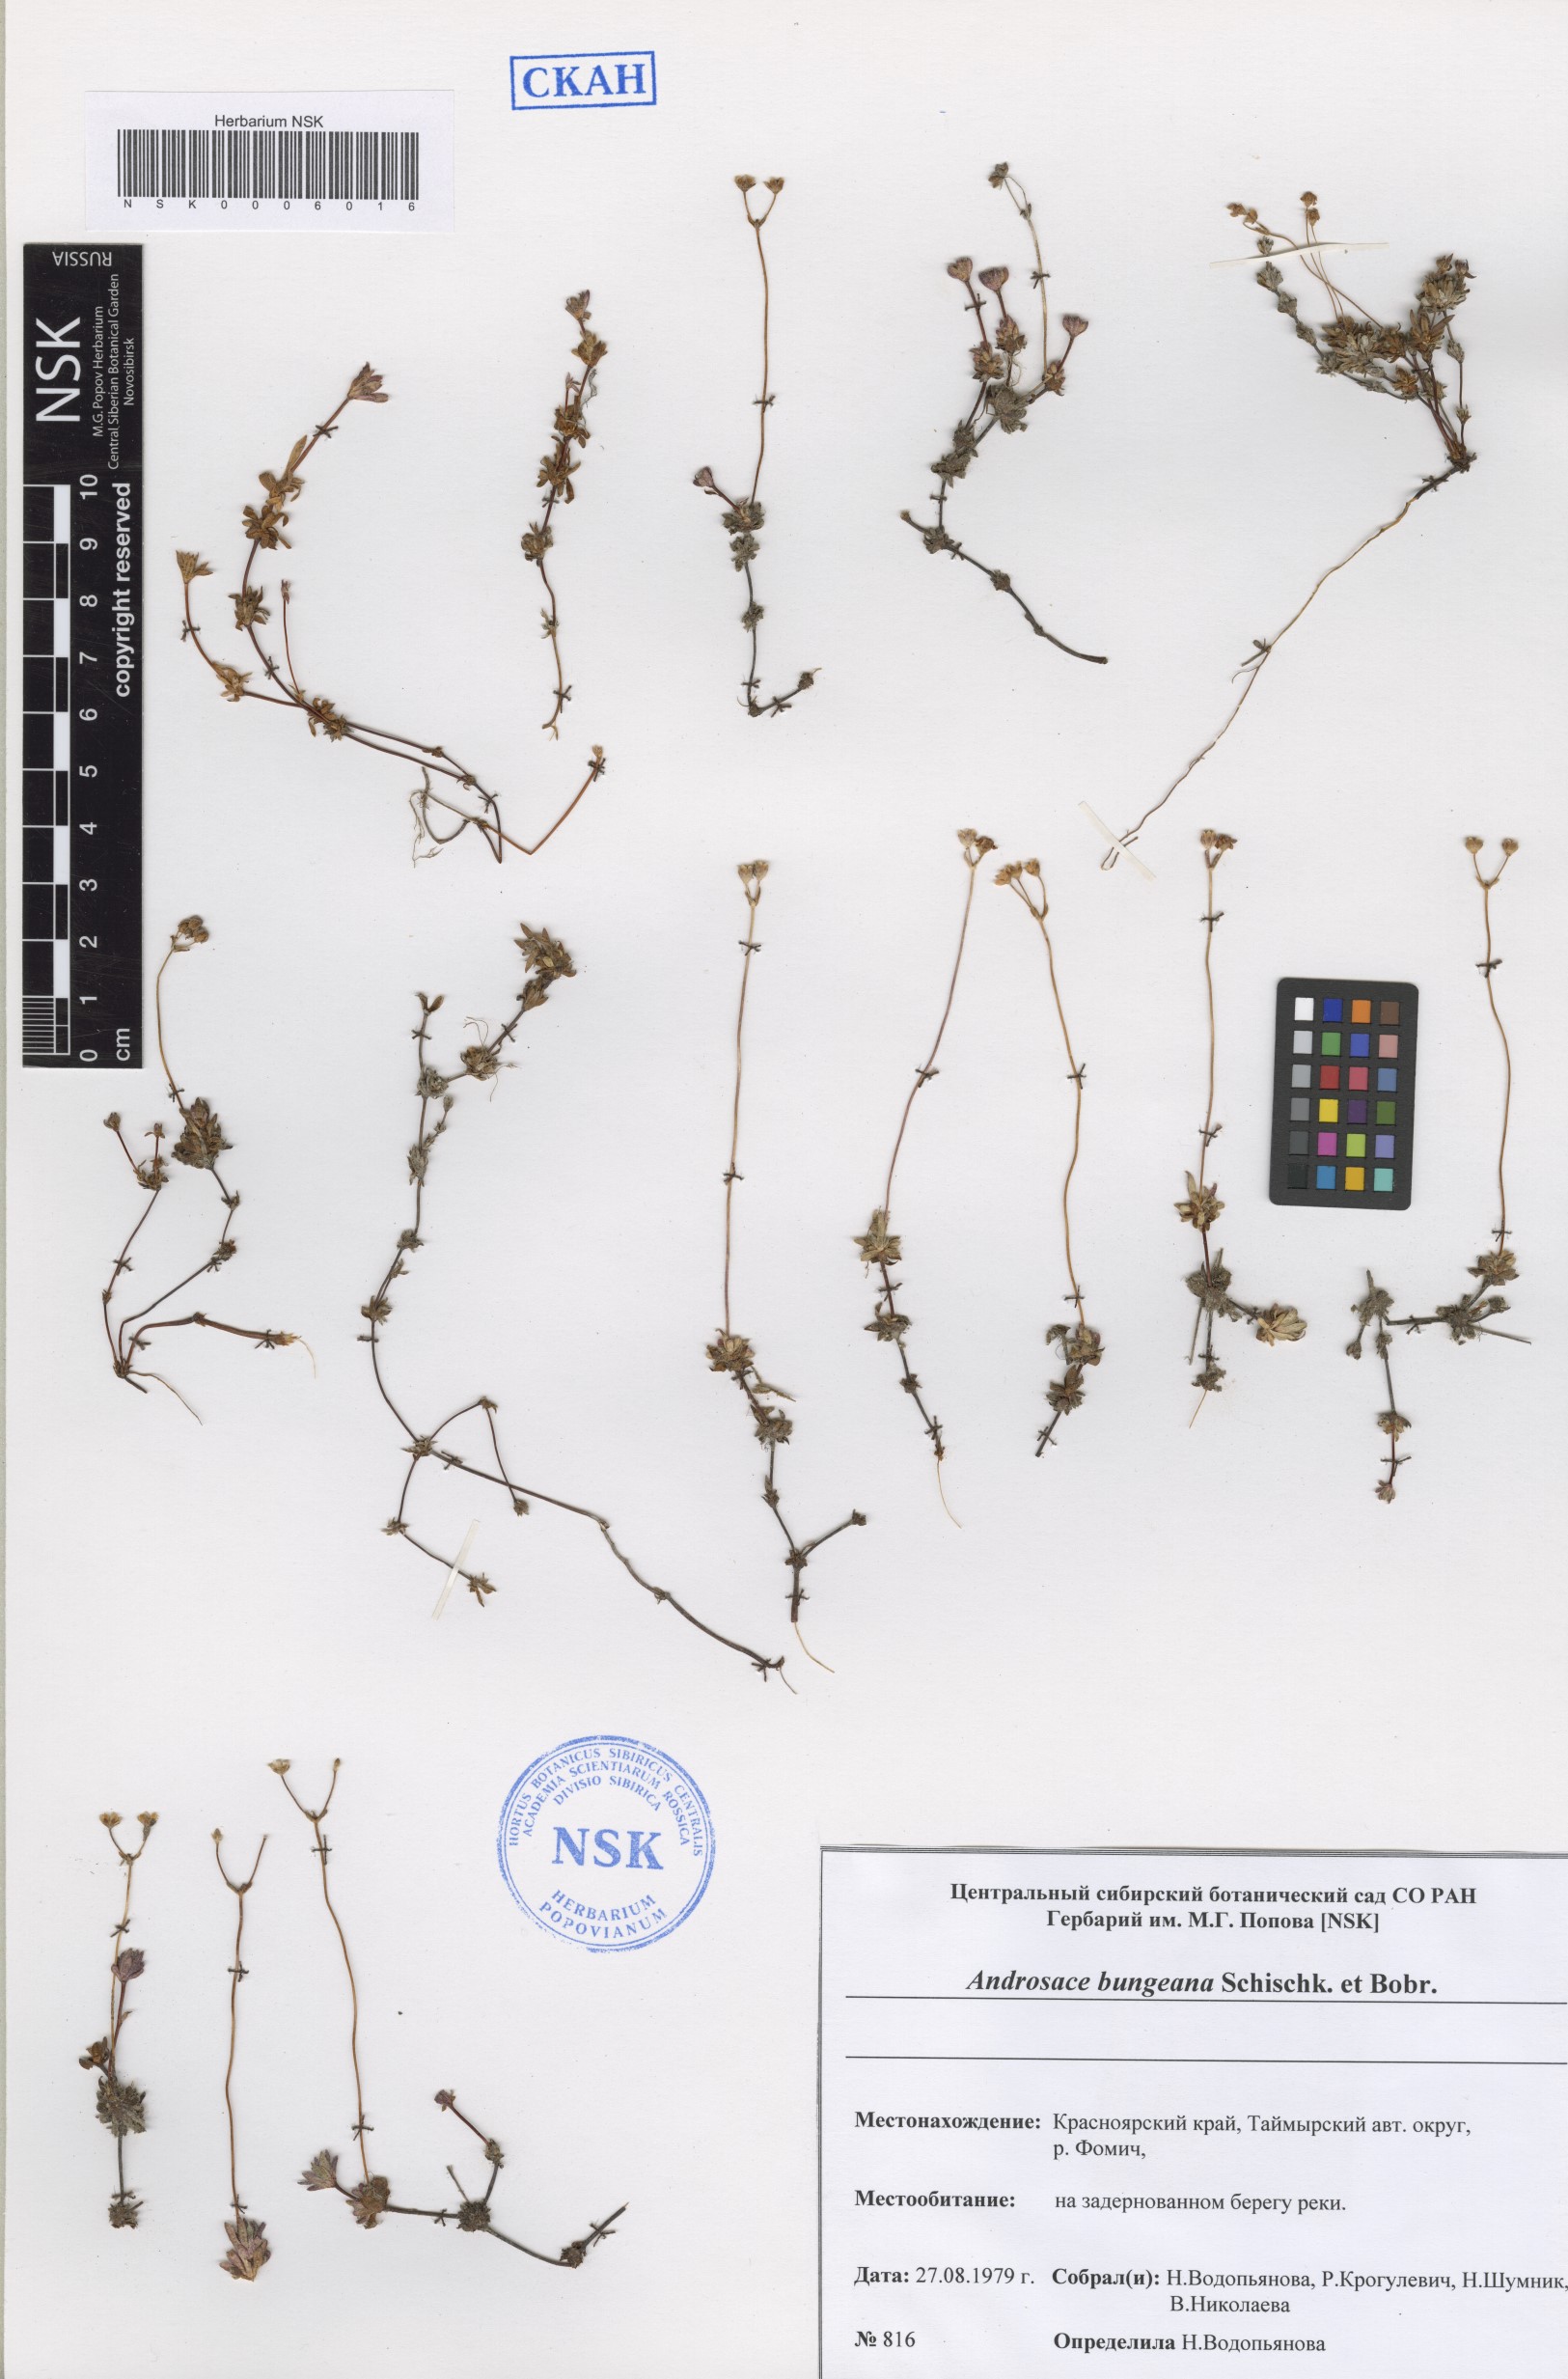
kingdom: Plantae
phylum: Tracheophyta
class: Magnoliopsida
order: Ericales
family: Primulaceae
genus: Androsace
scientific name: Androsace bungeana
